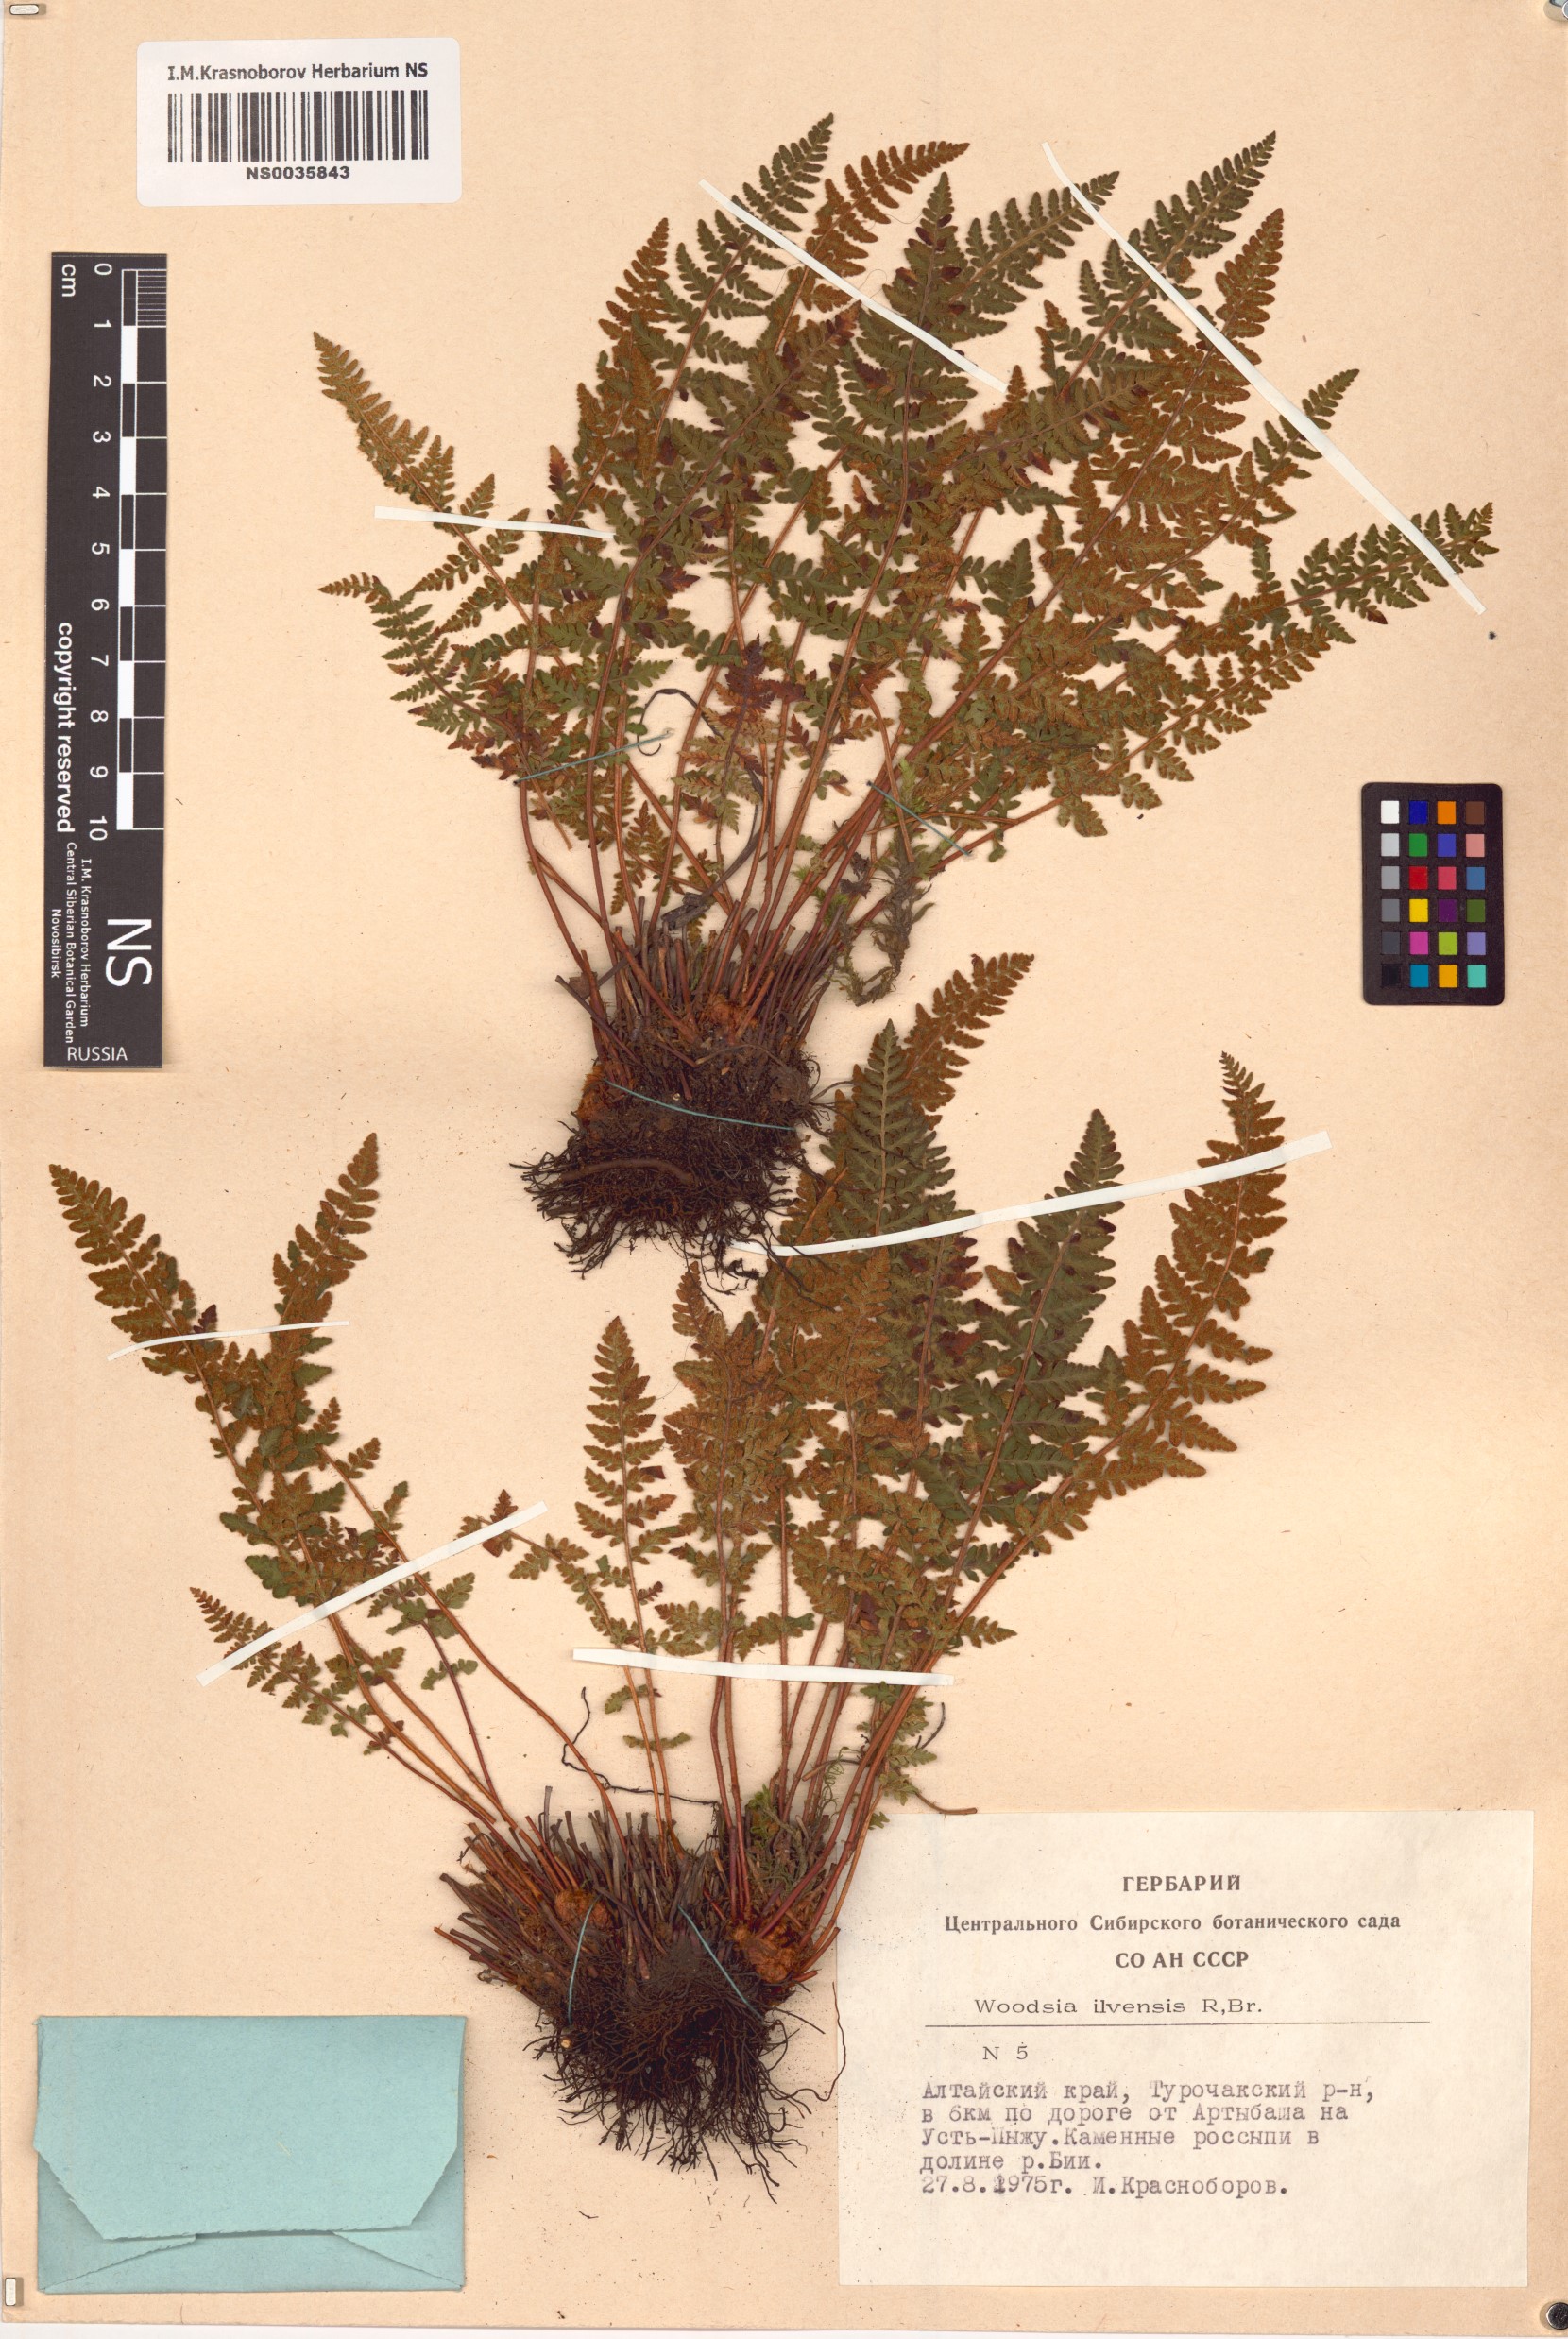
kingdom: Plantae
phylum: Tracheophyta
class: Polypodiopsida
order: Polypodiales
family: Woodsiaceae
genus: Woodsia
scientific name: Woodsia ilvensis
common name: Fragrant woodsia
